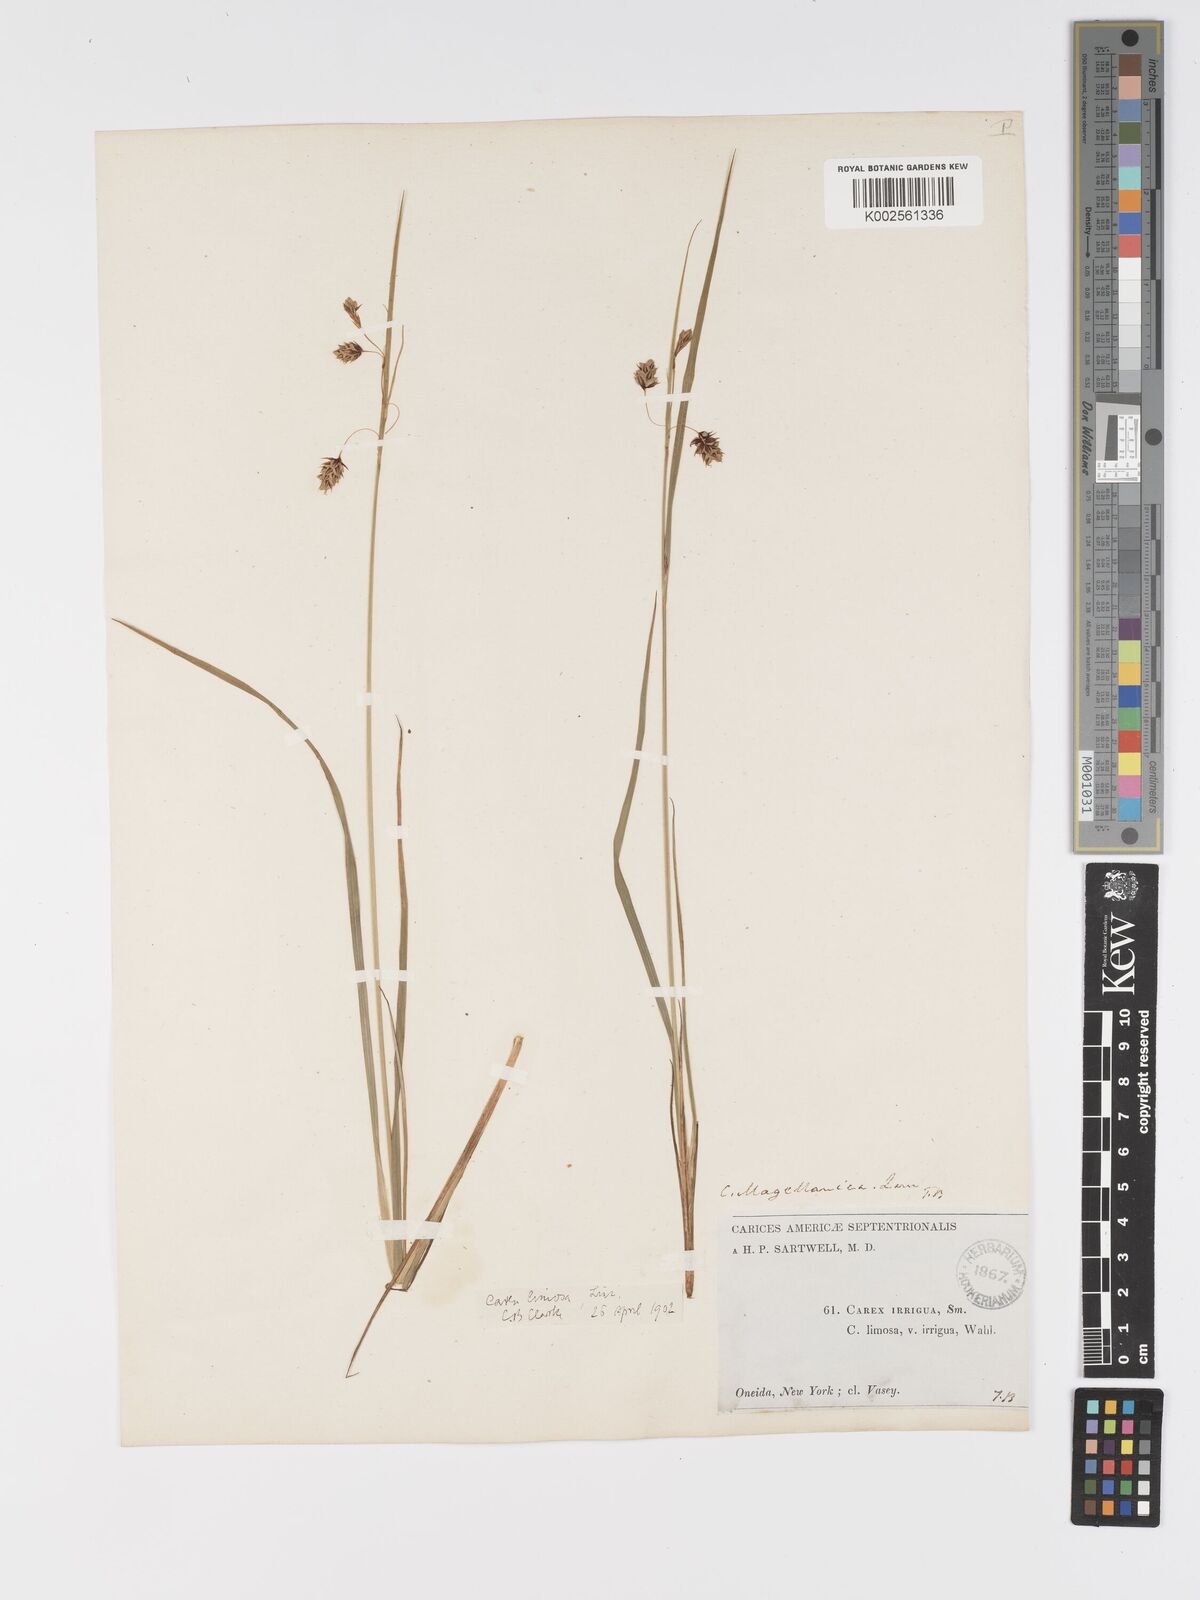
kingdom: Plantae
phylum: Tracheophyta
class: Liliopsida
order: Poales
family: Cyperaceae
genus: Carex
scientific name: Carex magellanica
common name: Bog sedge
